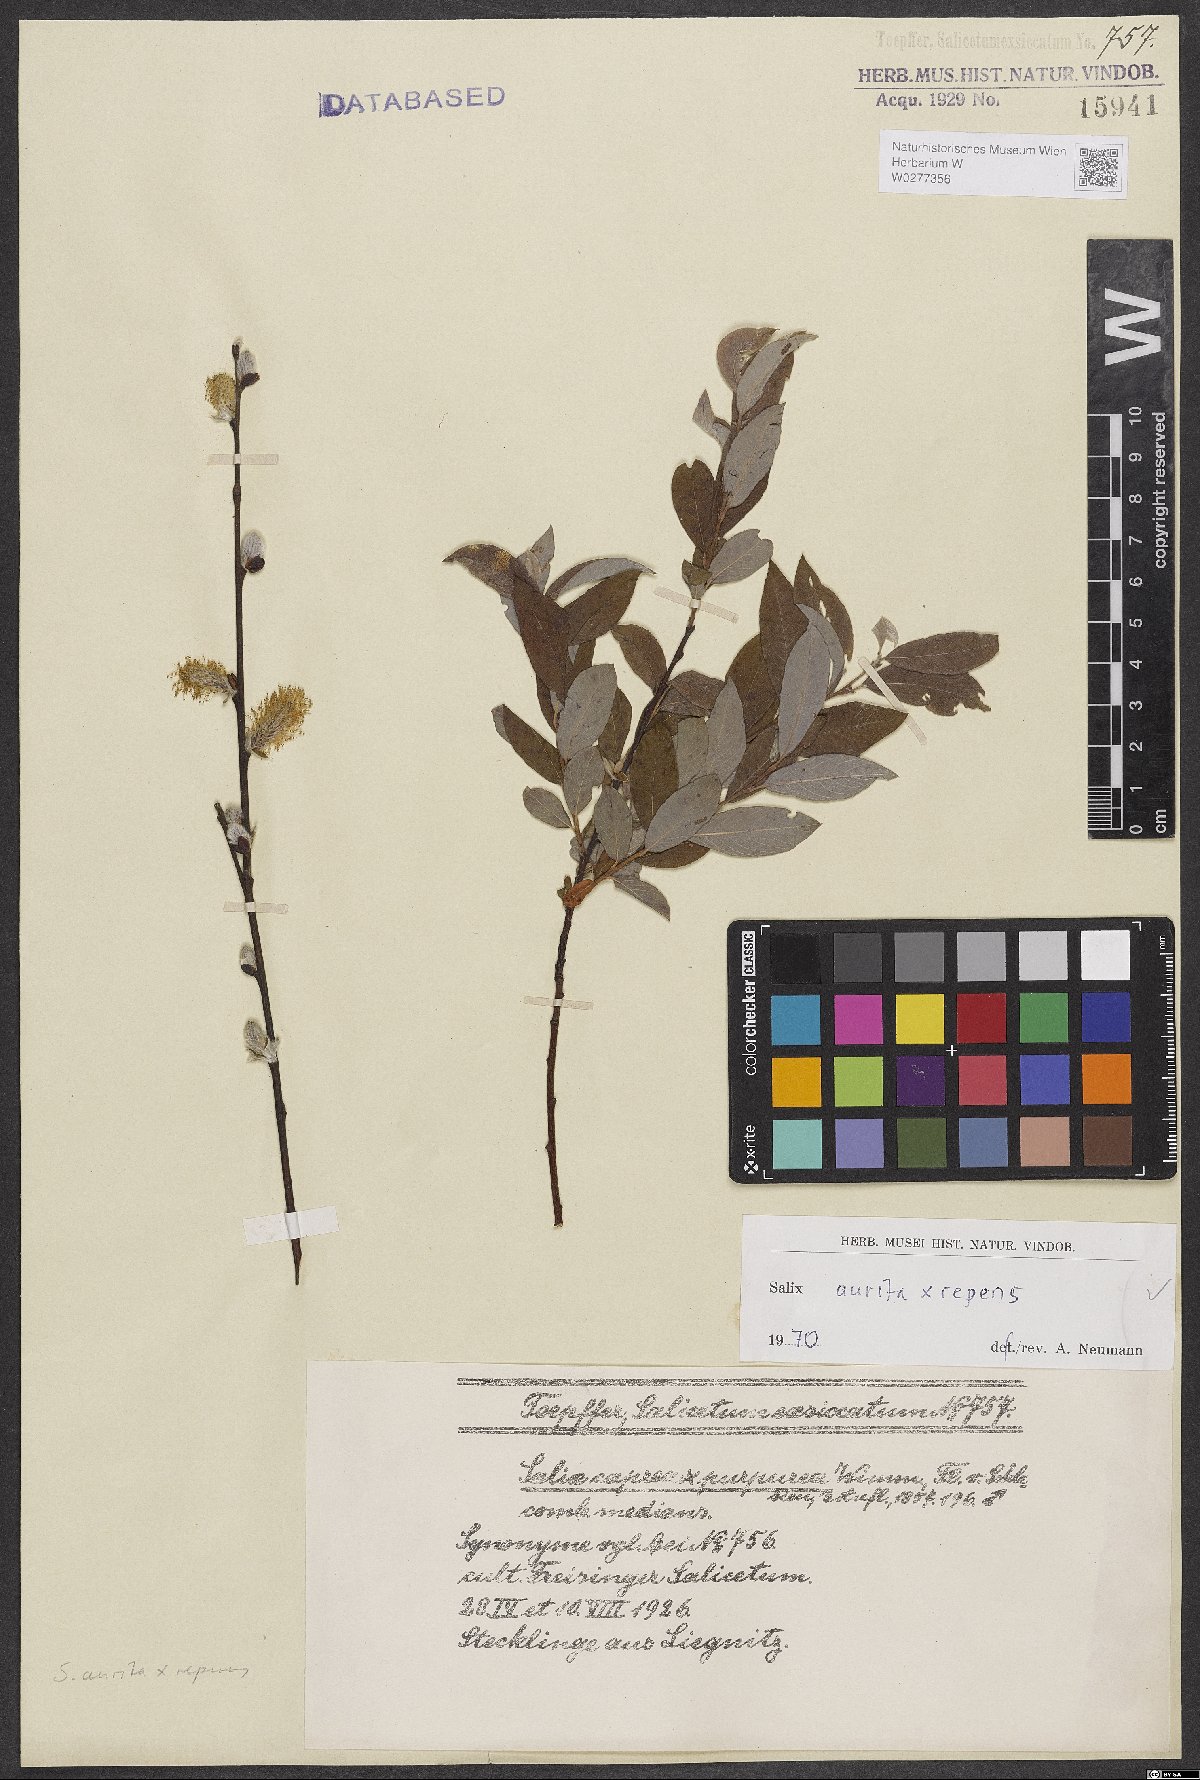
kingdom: Plantae
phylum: Tracheophyta
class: Magnoliopsida
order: Malpighiales
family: Salicaceae
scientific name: Salicaceae
